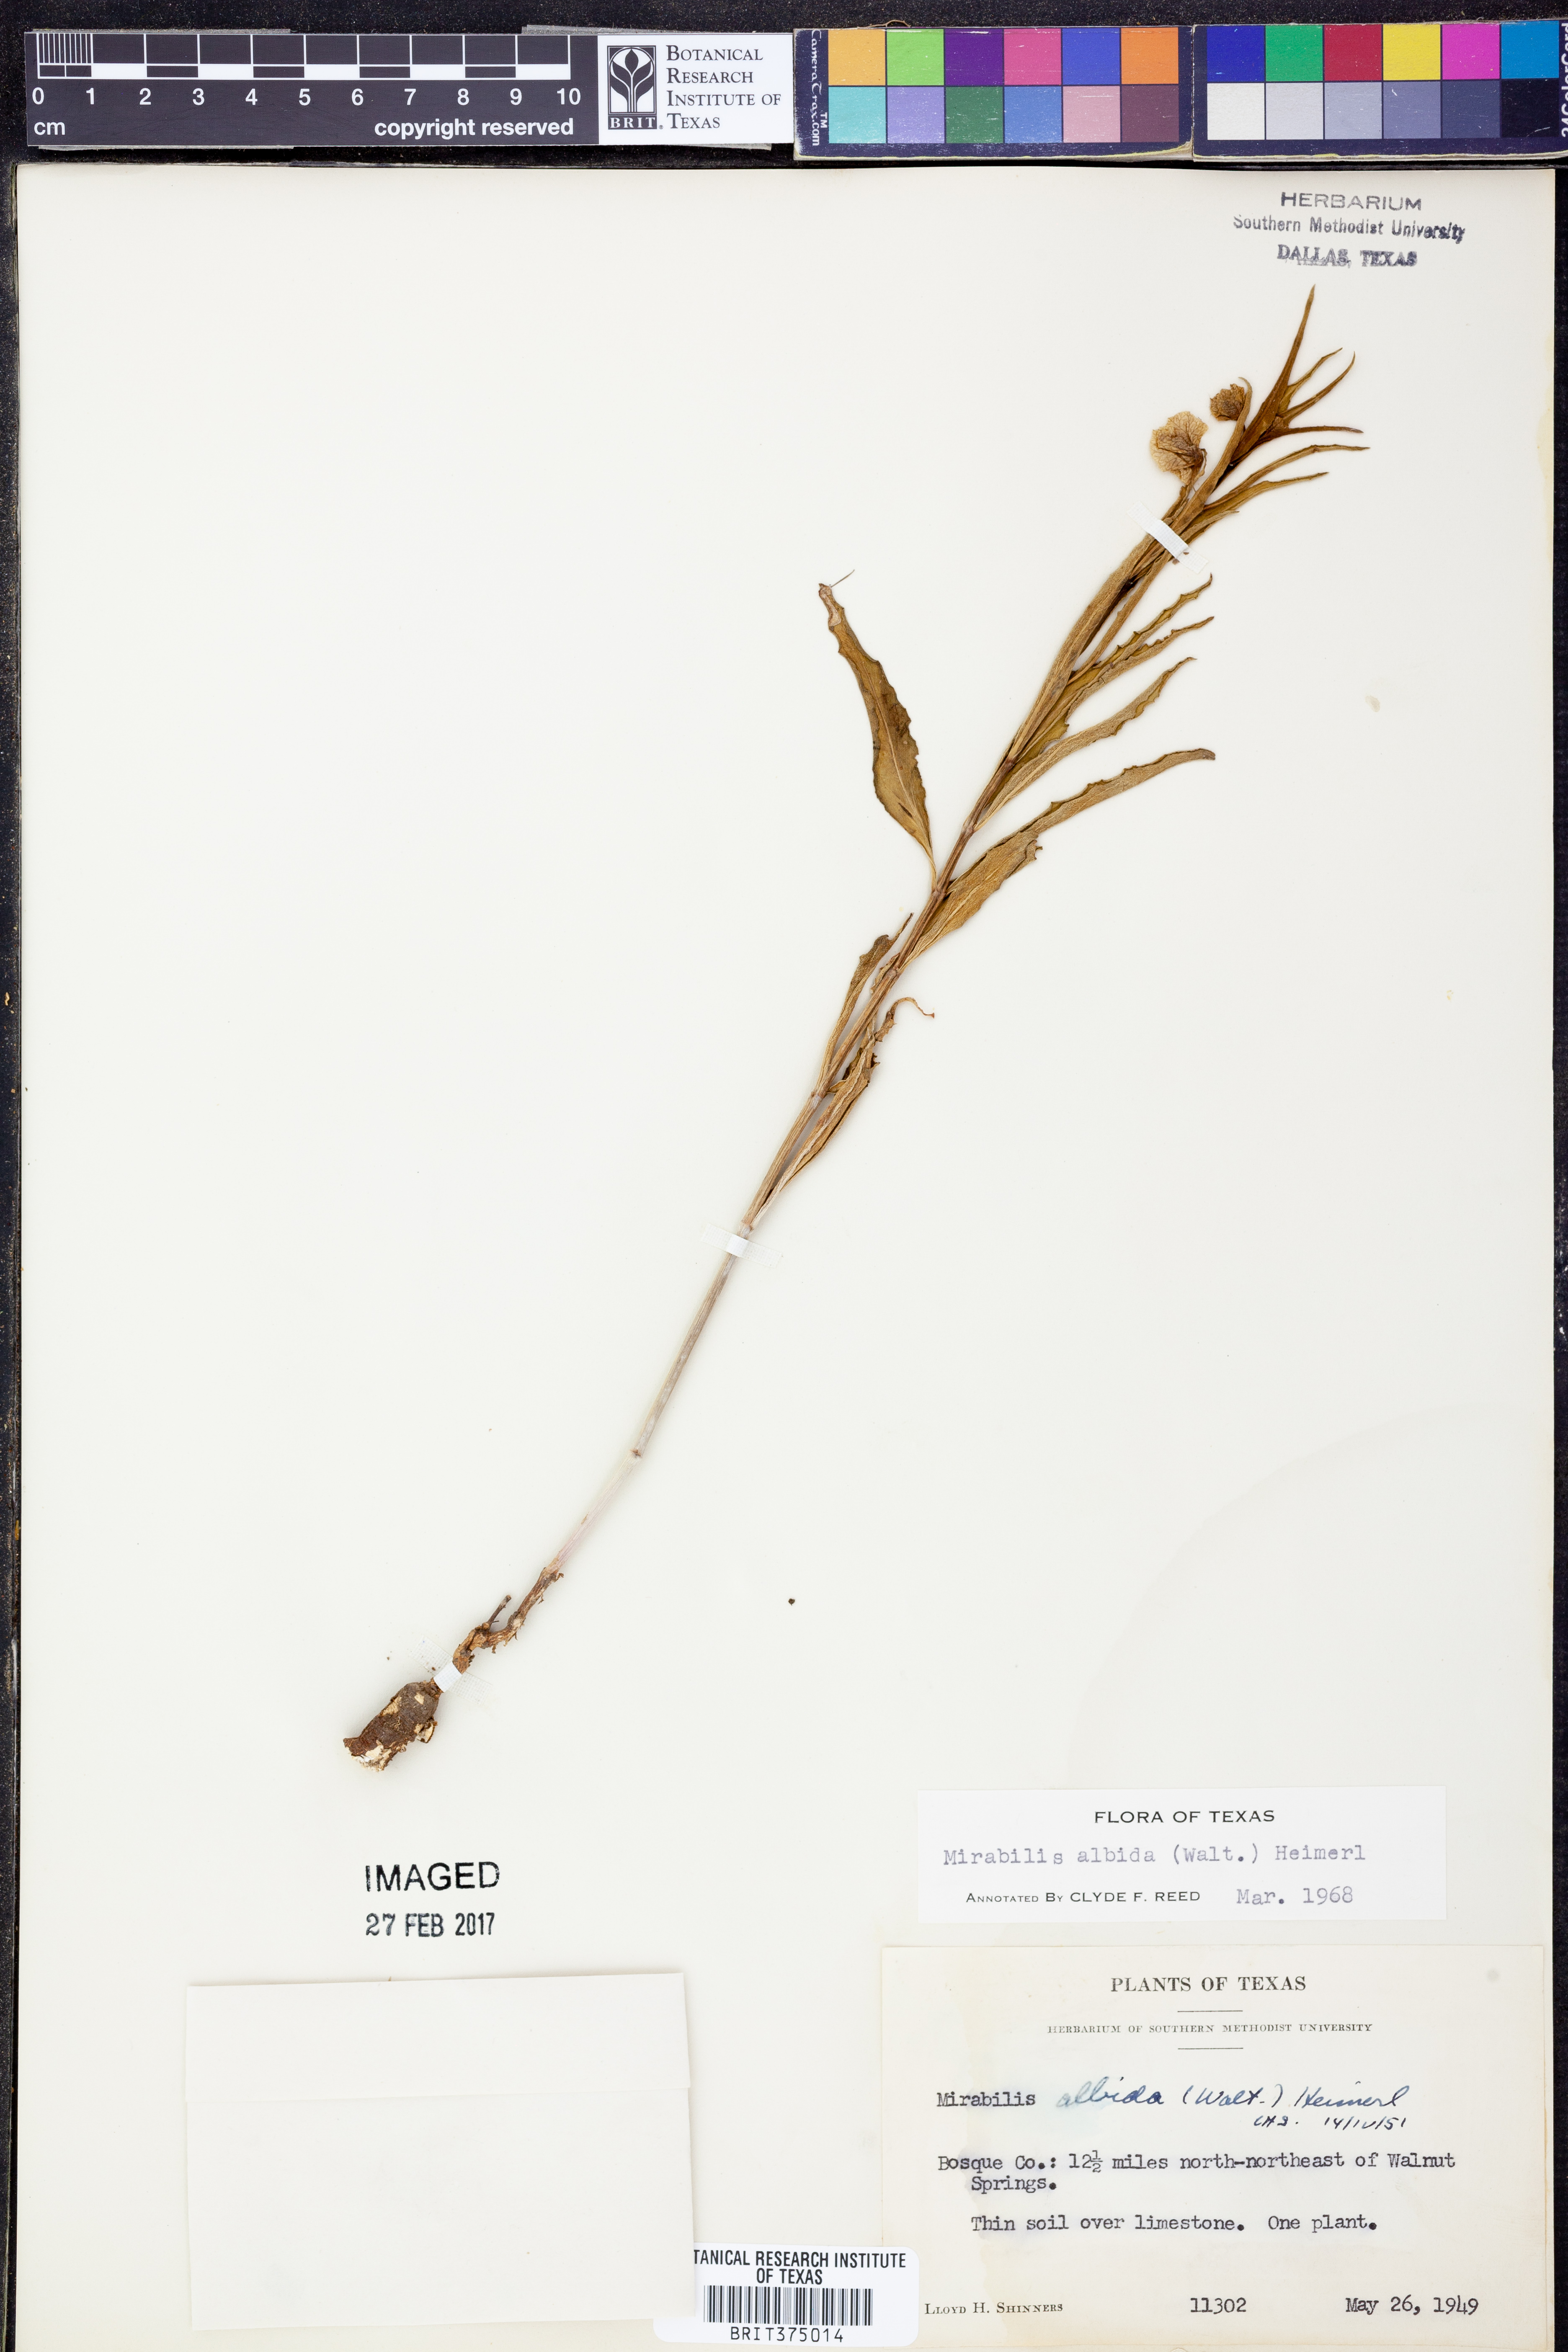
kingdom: Plantae
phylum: Tracheophyta
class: Magnoliopsida
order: Caryophyllales
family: Nyctaginaceae
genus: Mirabilis
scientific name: Mirabilis albida
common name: Hairy four-o'clock
